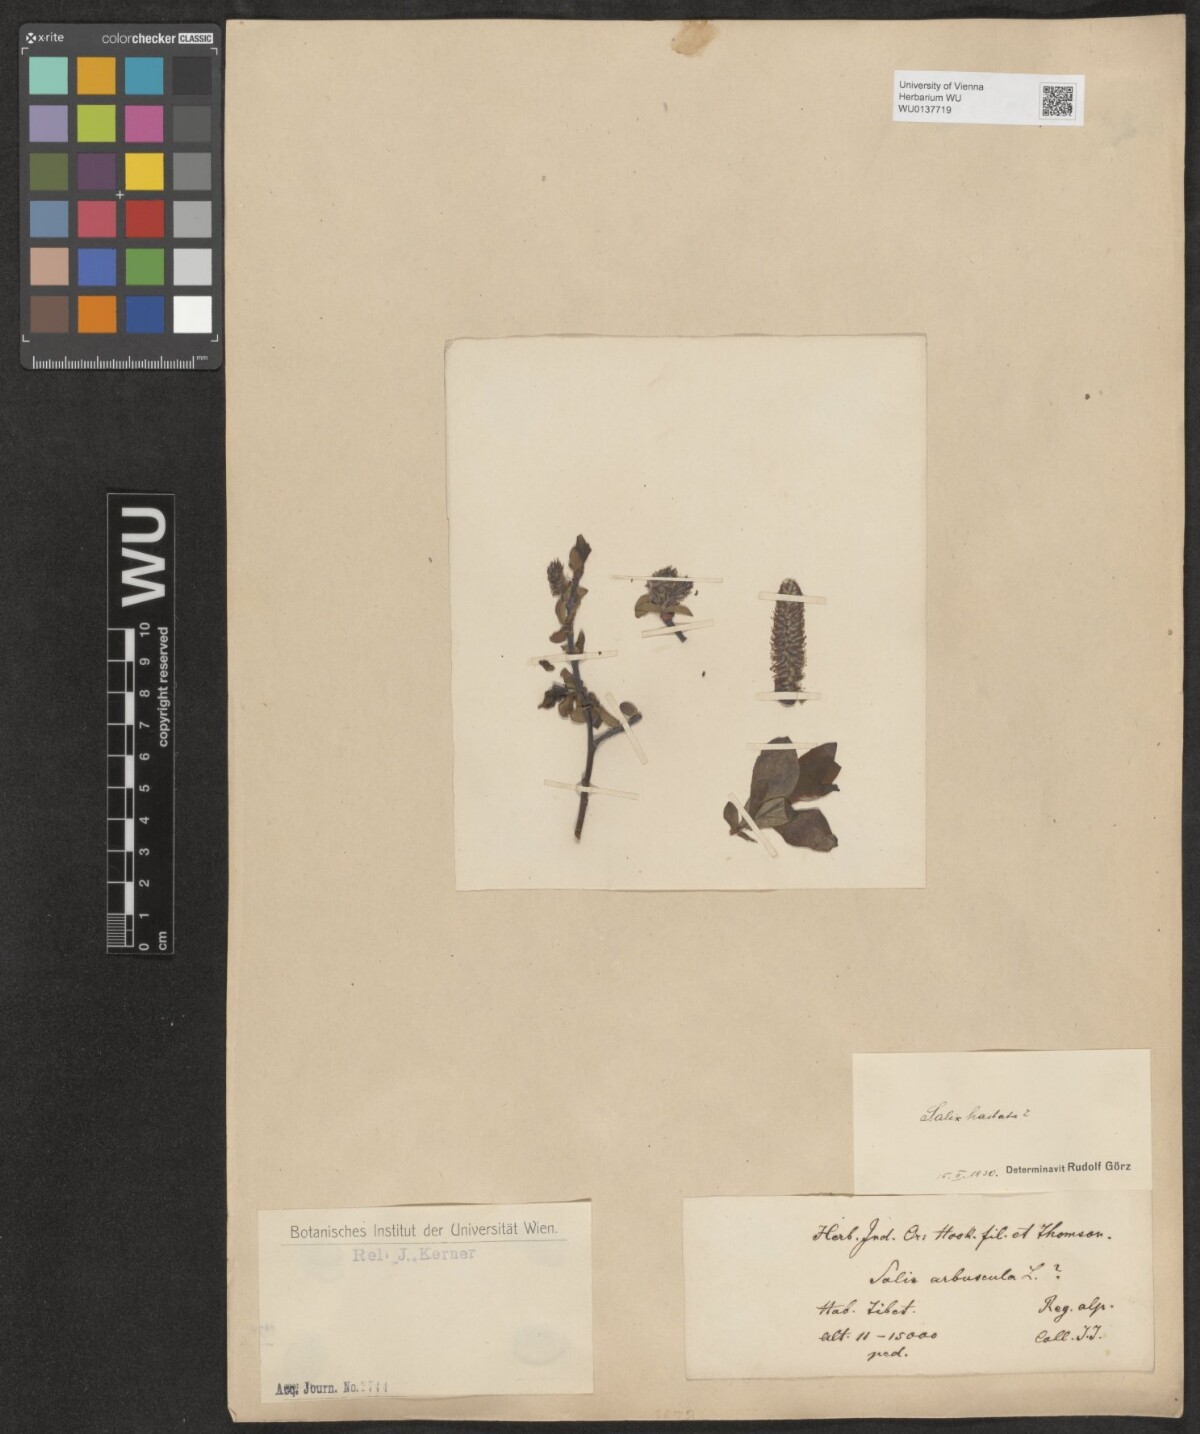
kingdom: Plantae
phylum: Tracheophyta
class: Magnoliopsida
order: Malpighiales
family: Salicaceae
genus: Salix
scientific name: Salix hastata
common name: Halberd willow
